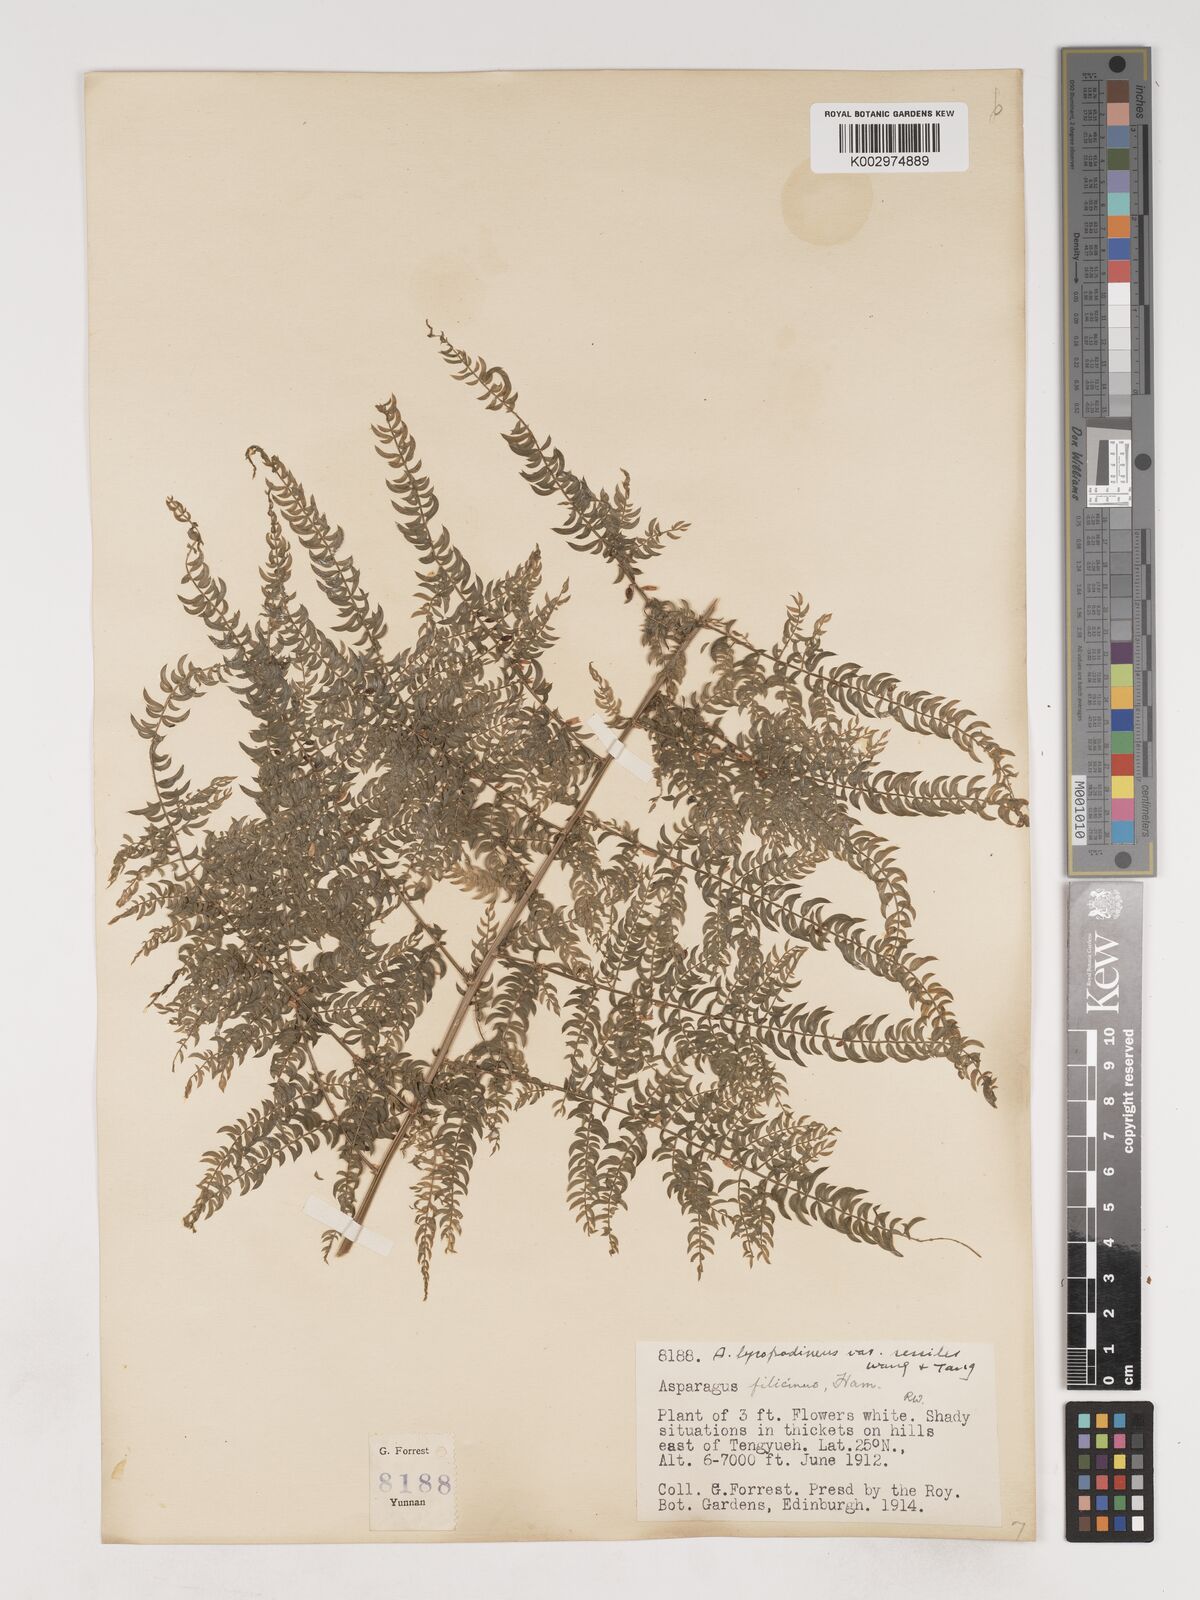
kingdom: Plantae
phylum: Tracheophyta
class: Liliopsida
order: Asparagales
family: Asparagaceae
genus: Asparagus
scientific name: Asparagus lycopodineus
